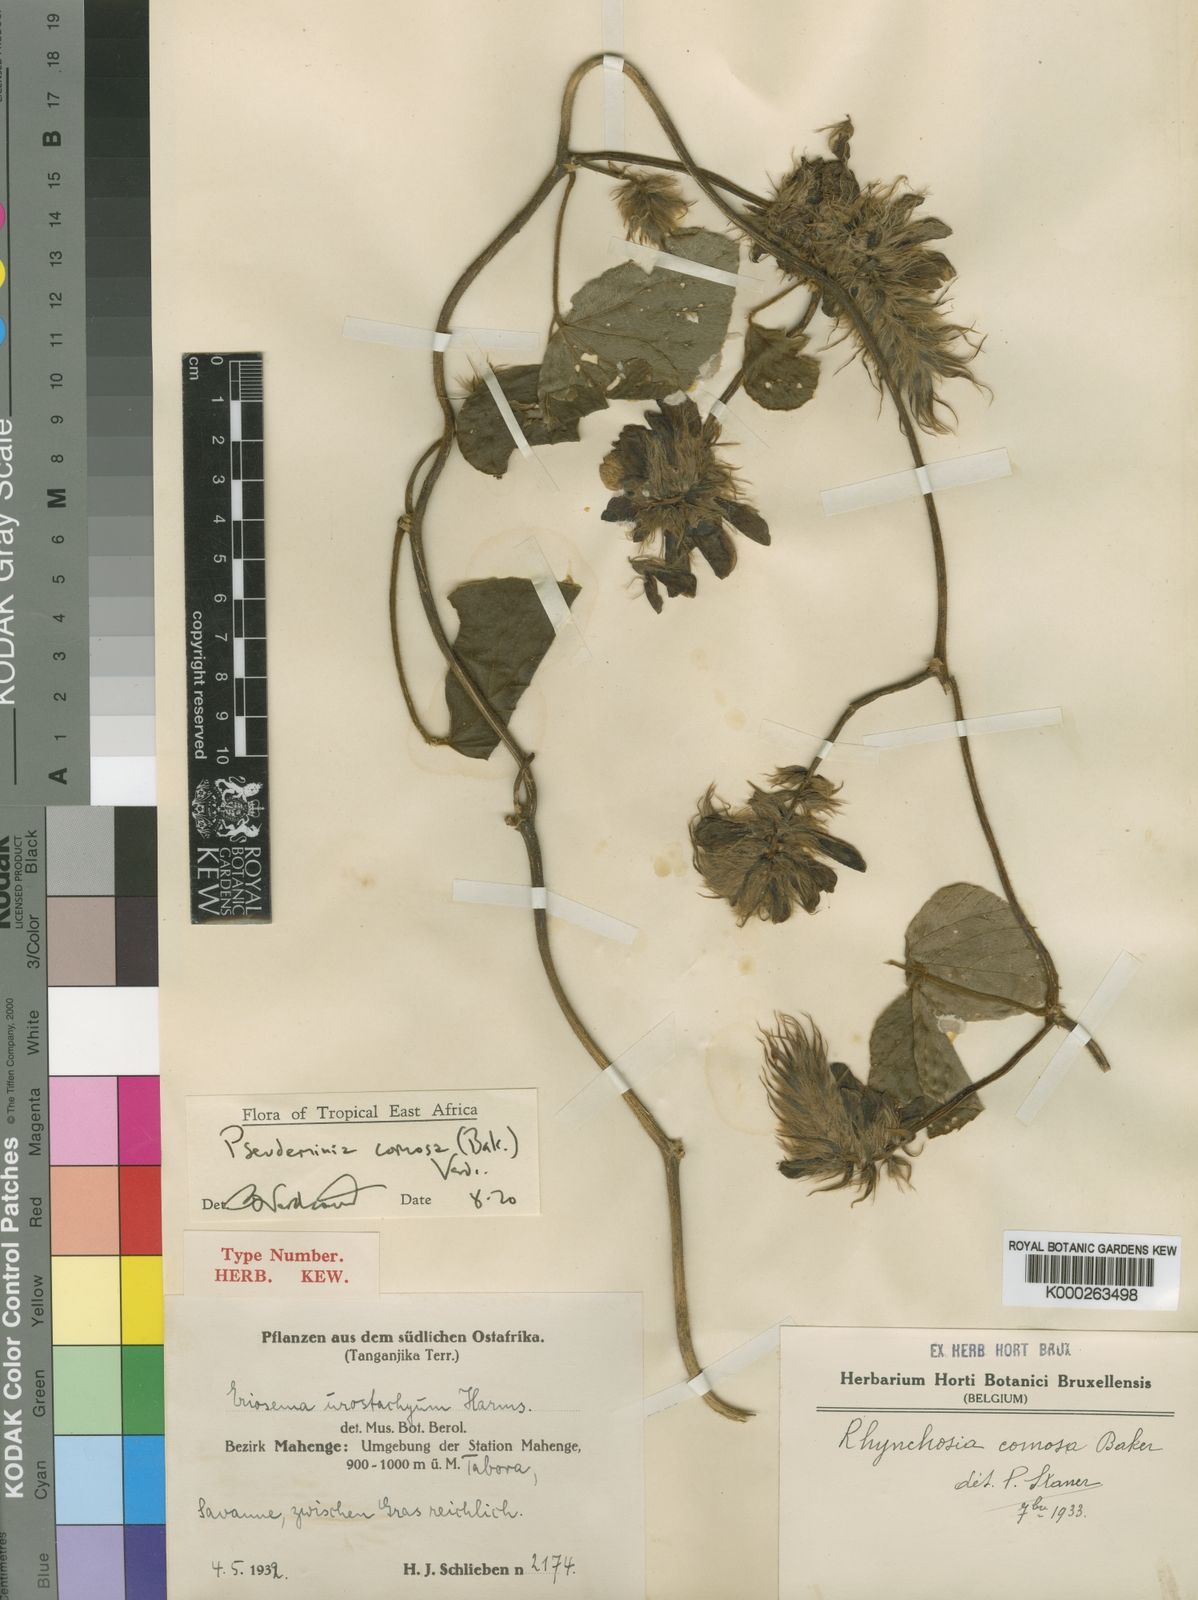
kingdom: Plantae
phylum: Tracheophyta
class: Magnoliopsida
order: Fabales
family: Fabaceae
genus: Pseudeminia
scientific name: Pseudeminia comosa
